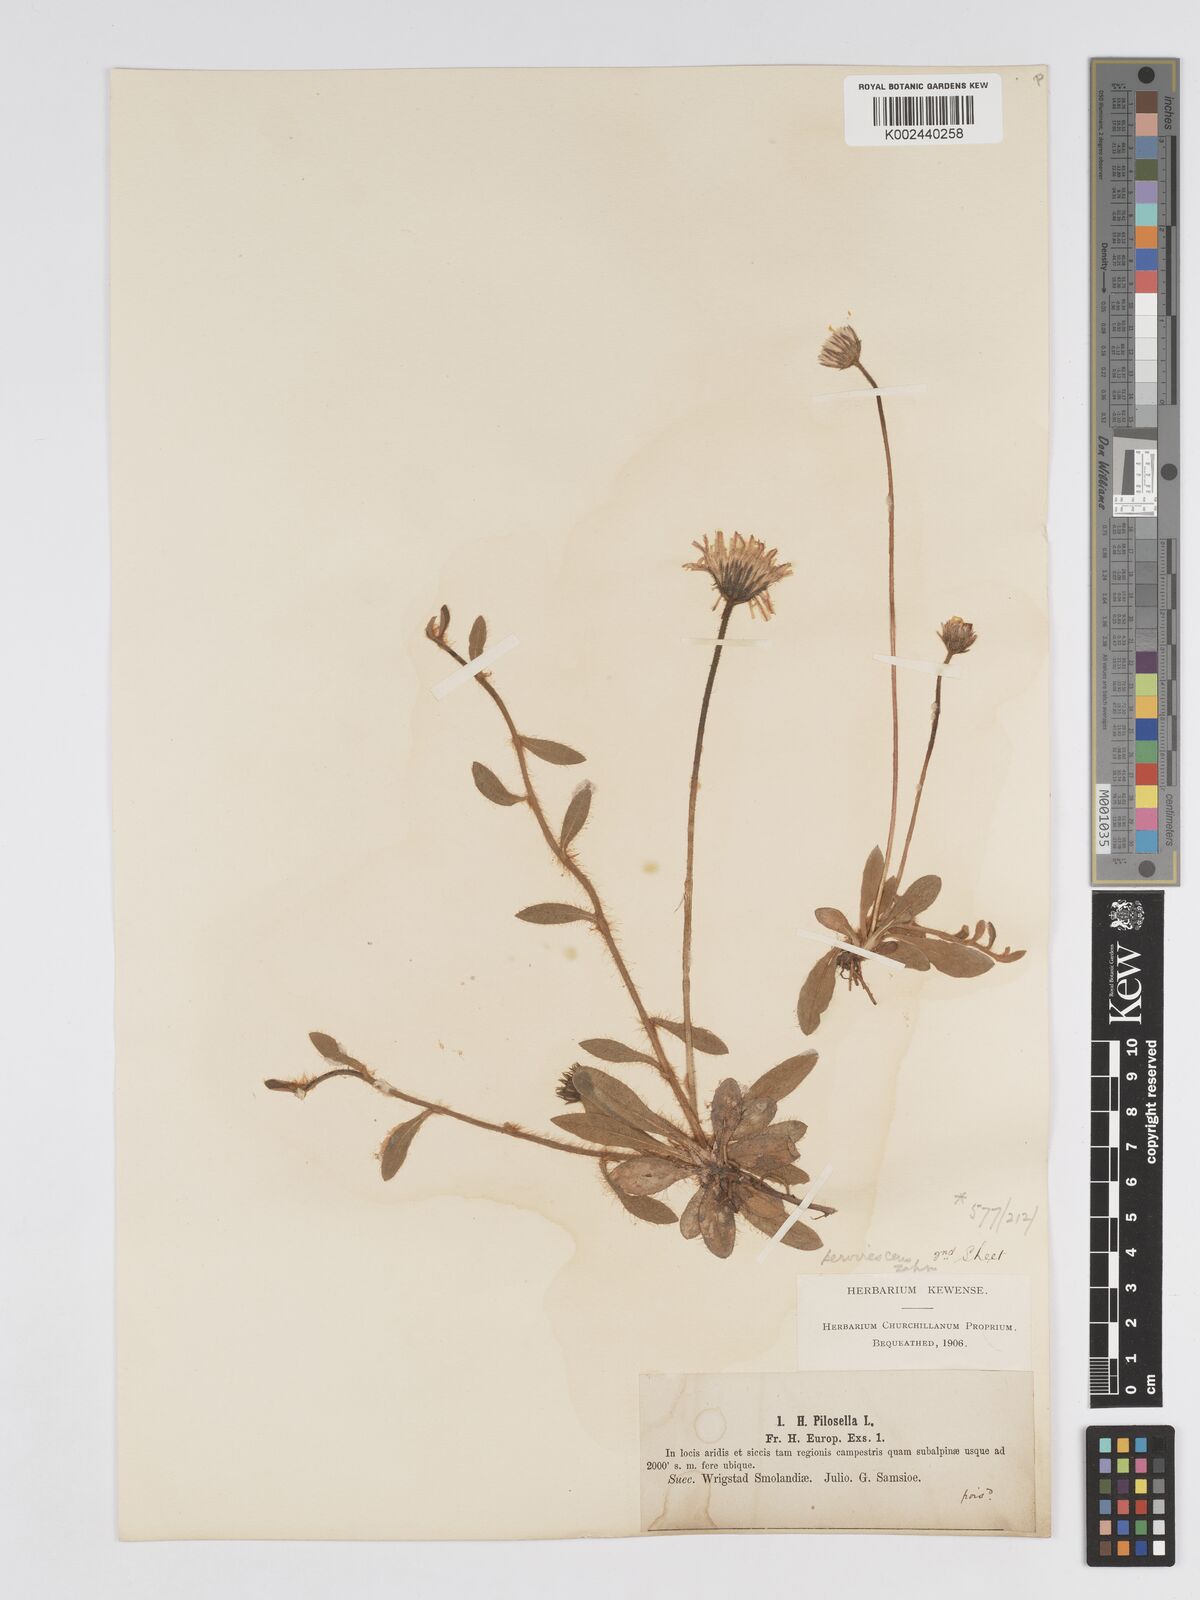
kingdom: Plantae
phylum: Tracheophyta
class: Magnoliopsida
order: Asterales
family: Asteraceae
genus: Pilosella
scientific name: Pilosella officinarum
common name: Mouse-ear hawkweed
